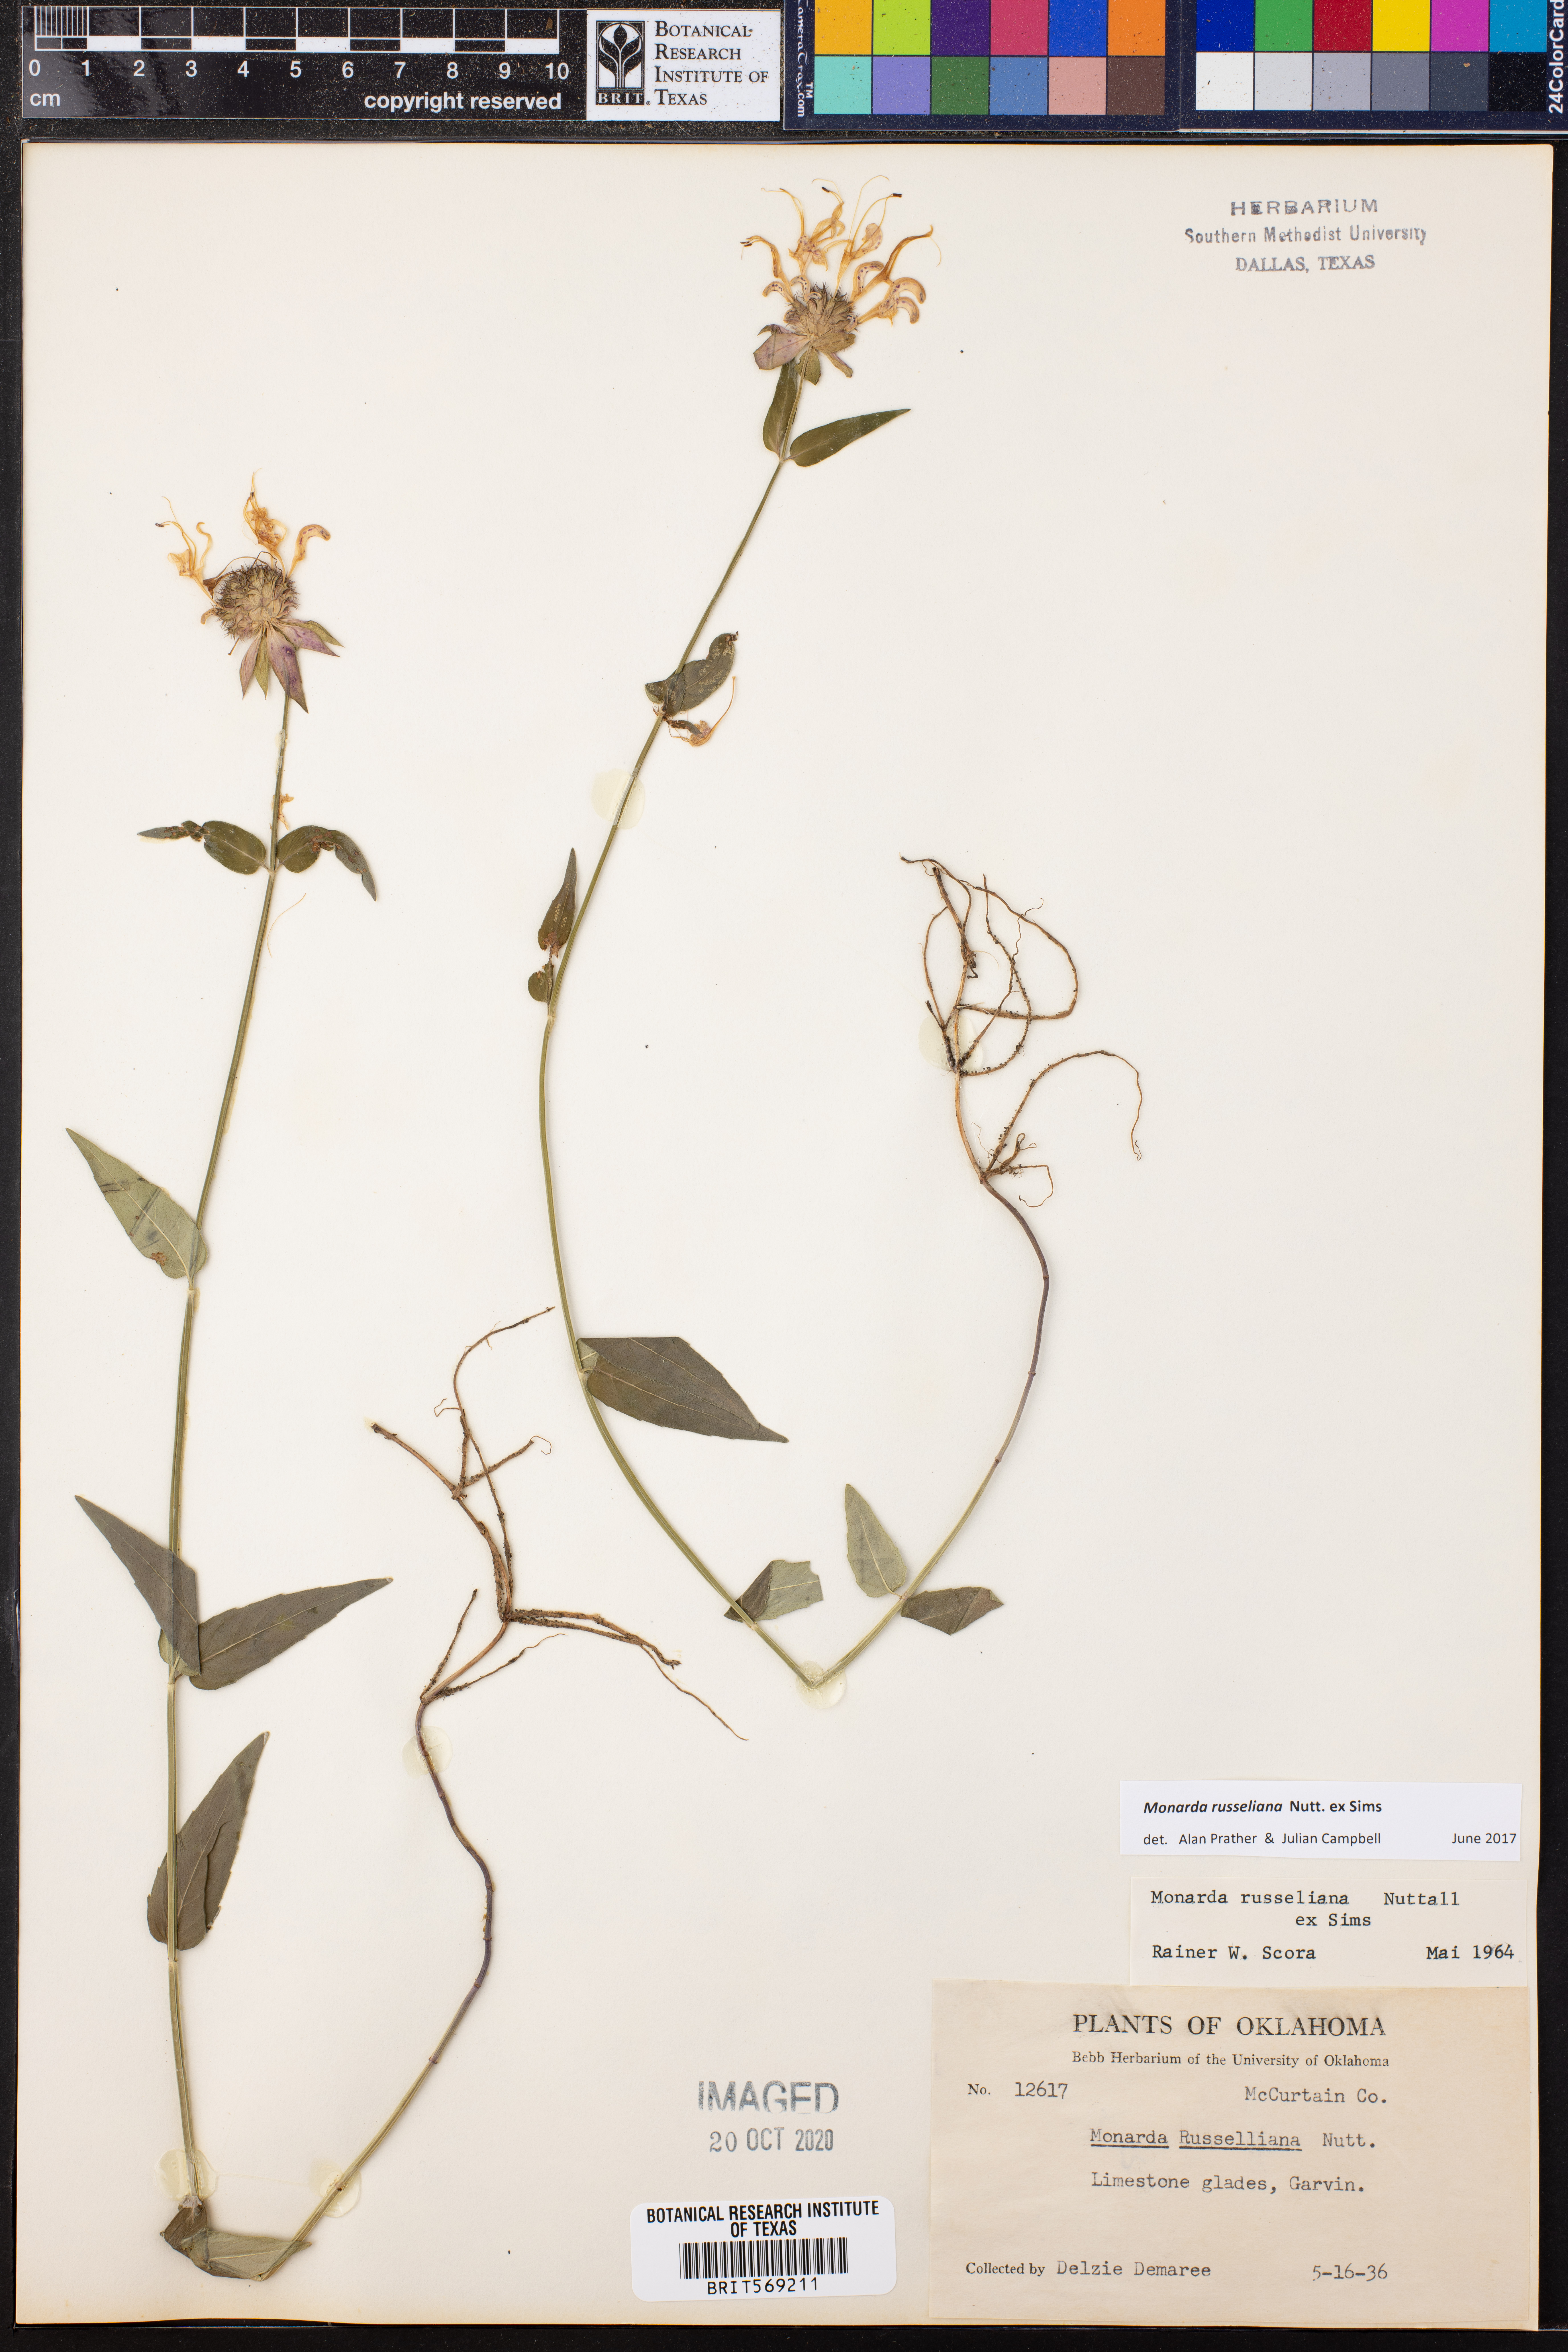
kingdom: Plantae
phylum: Tracheophyta
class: Magnoliopsida
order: Lamiales
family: Lamiaceae
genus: Monarda
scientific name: Monarda russeliana
